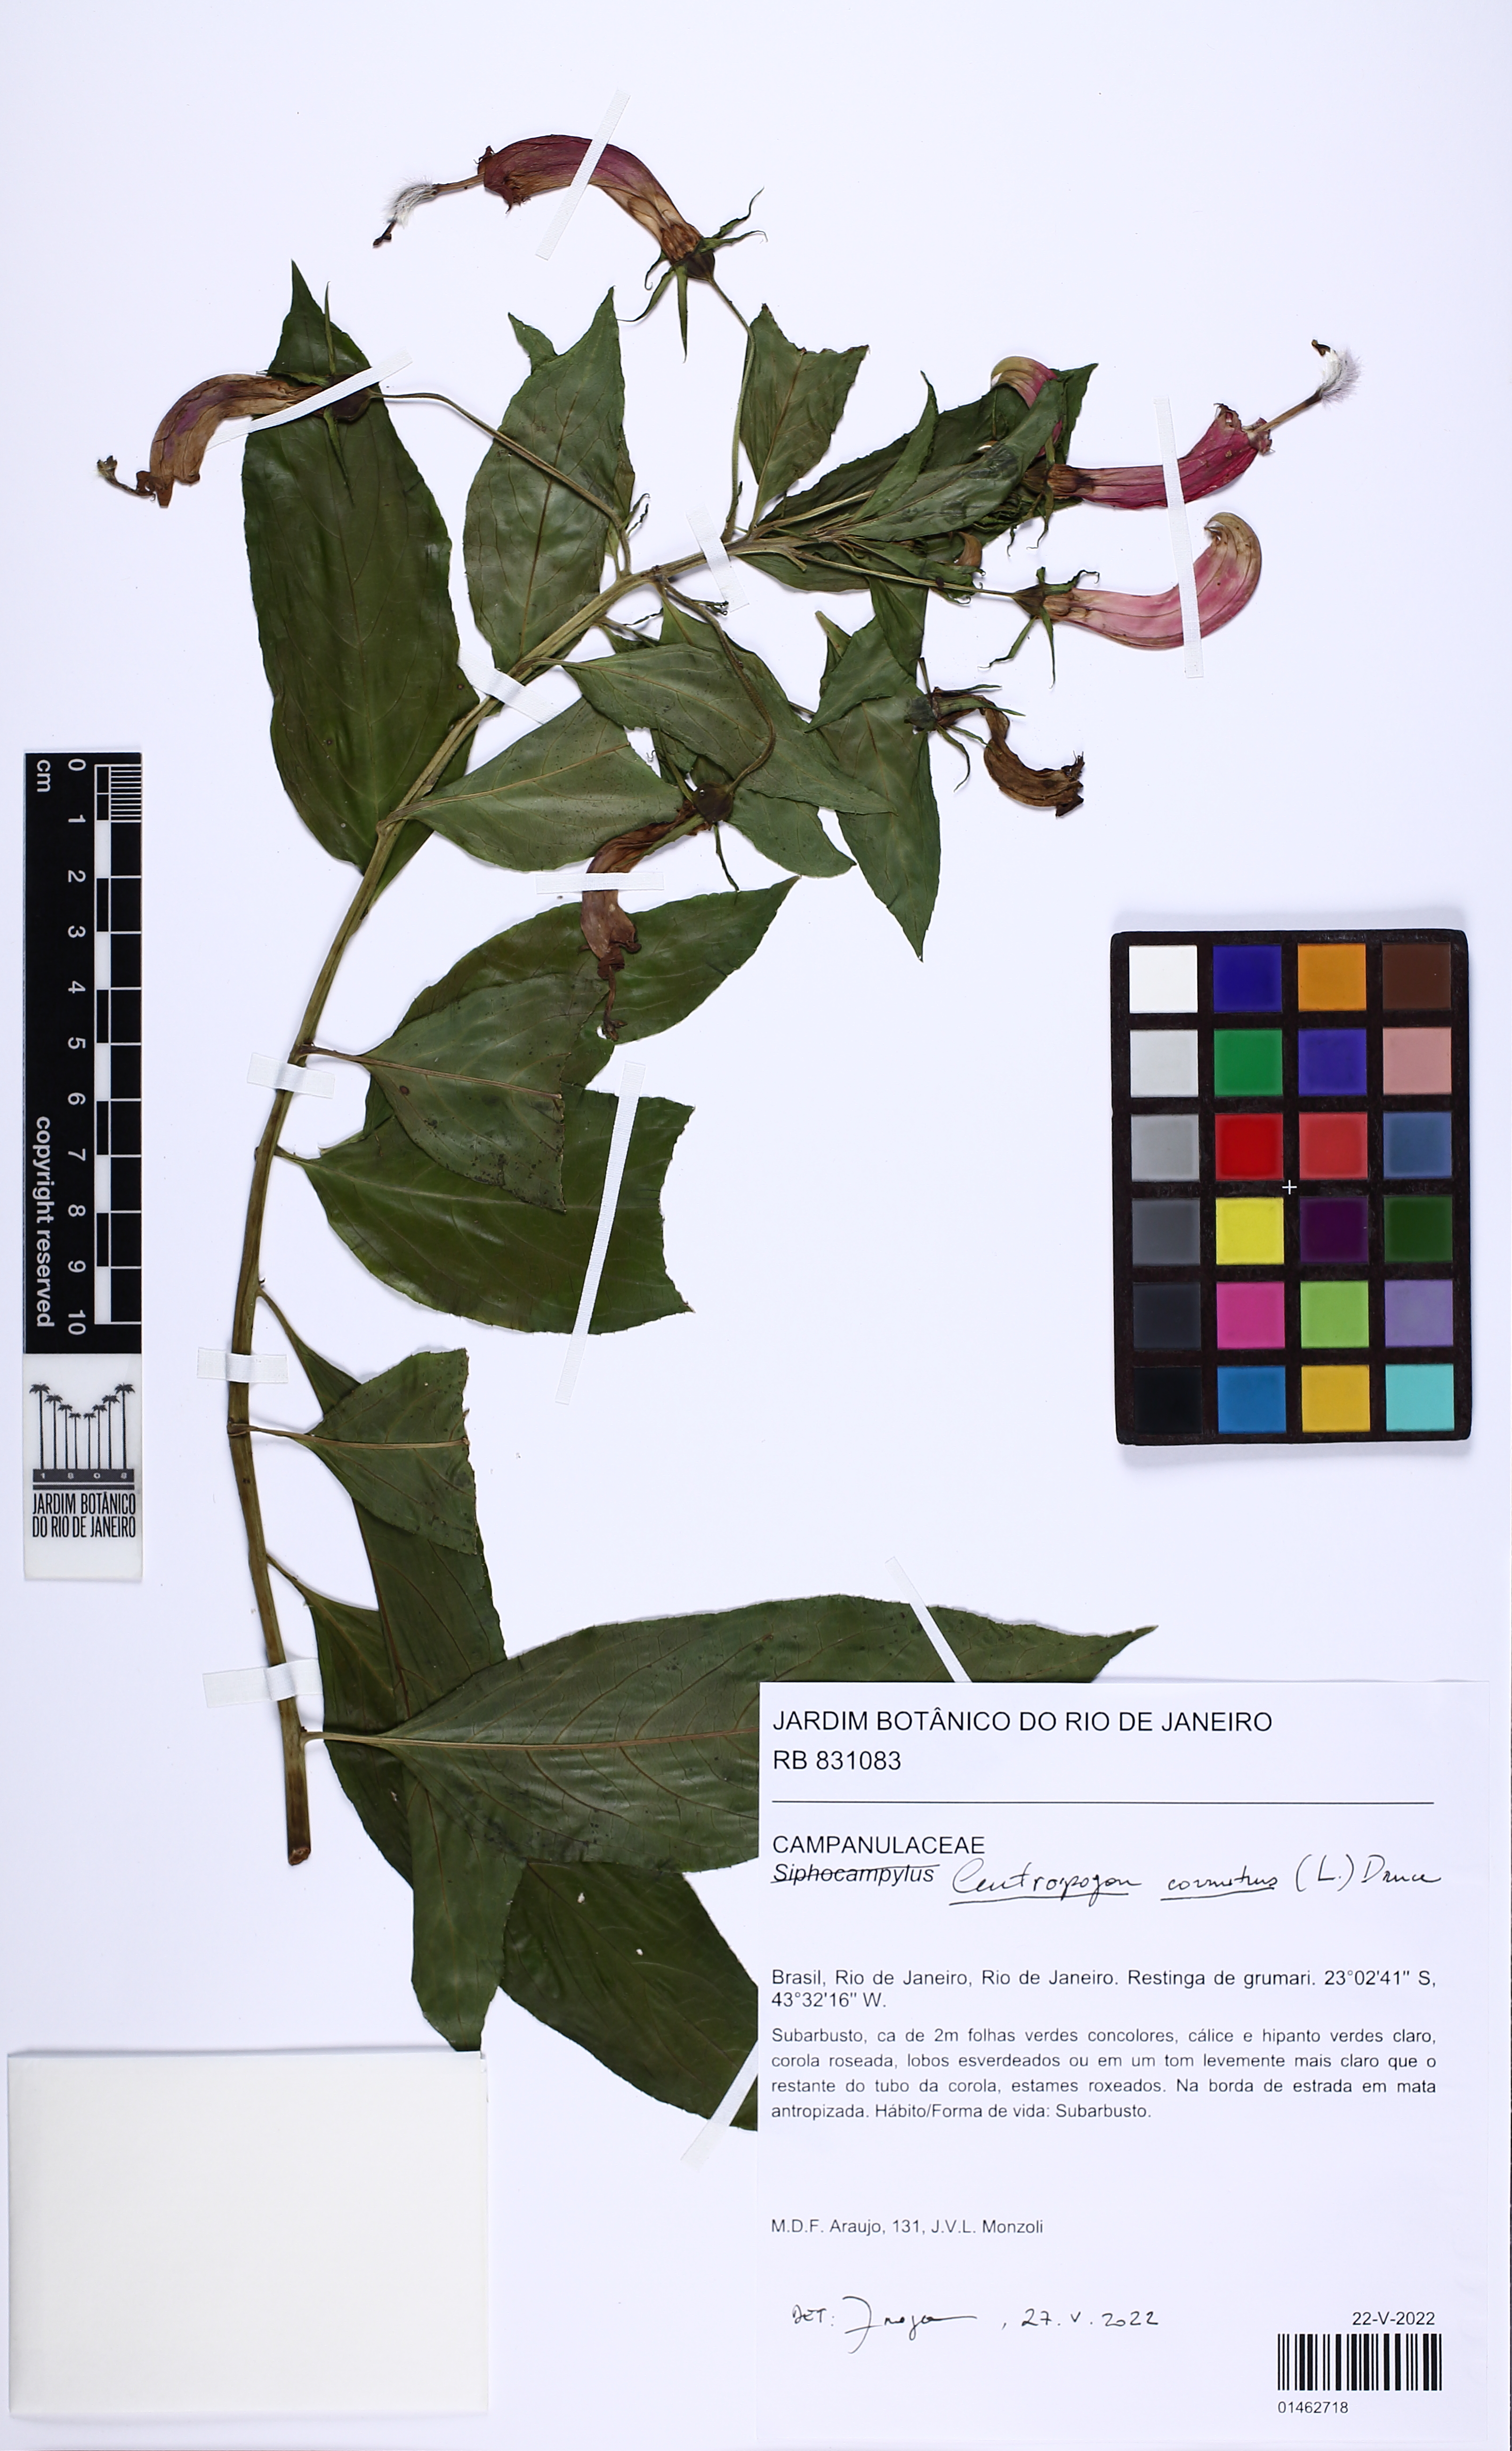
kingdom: Plantae
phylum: Tracheophyta
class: Magnoliopsida
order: Asterales
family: Campanulaceae
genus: Siphocampylus
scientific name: Siphocampylus
